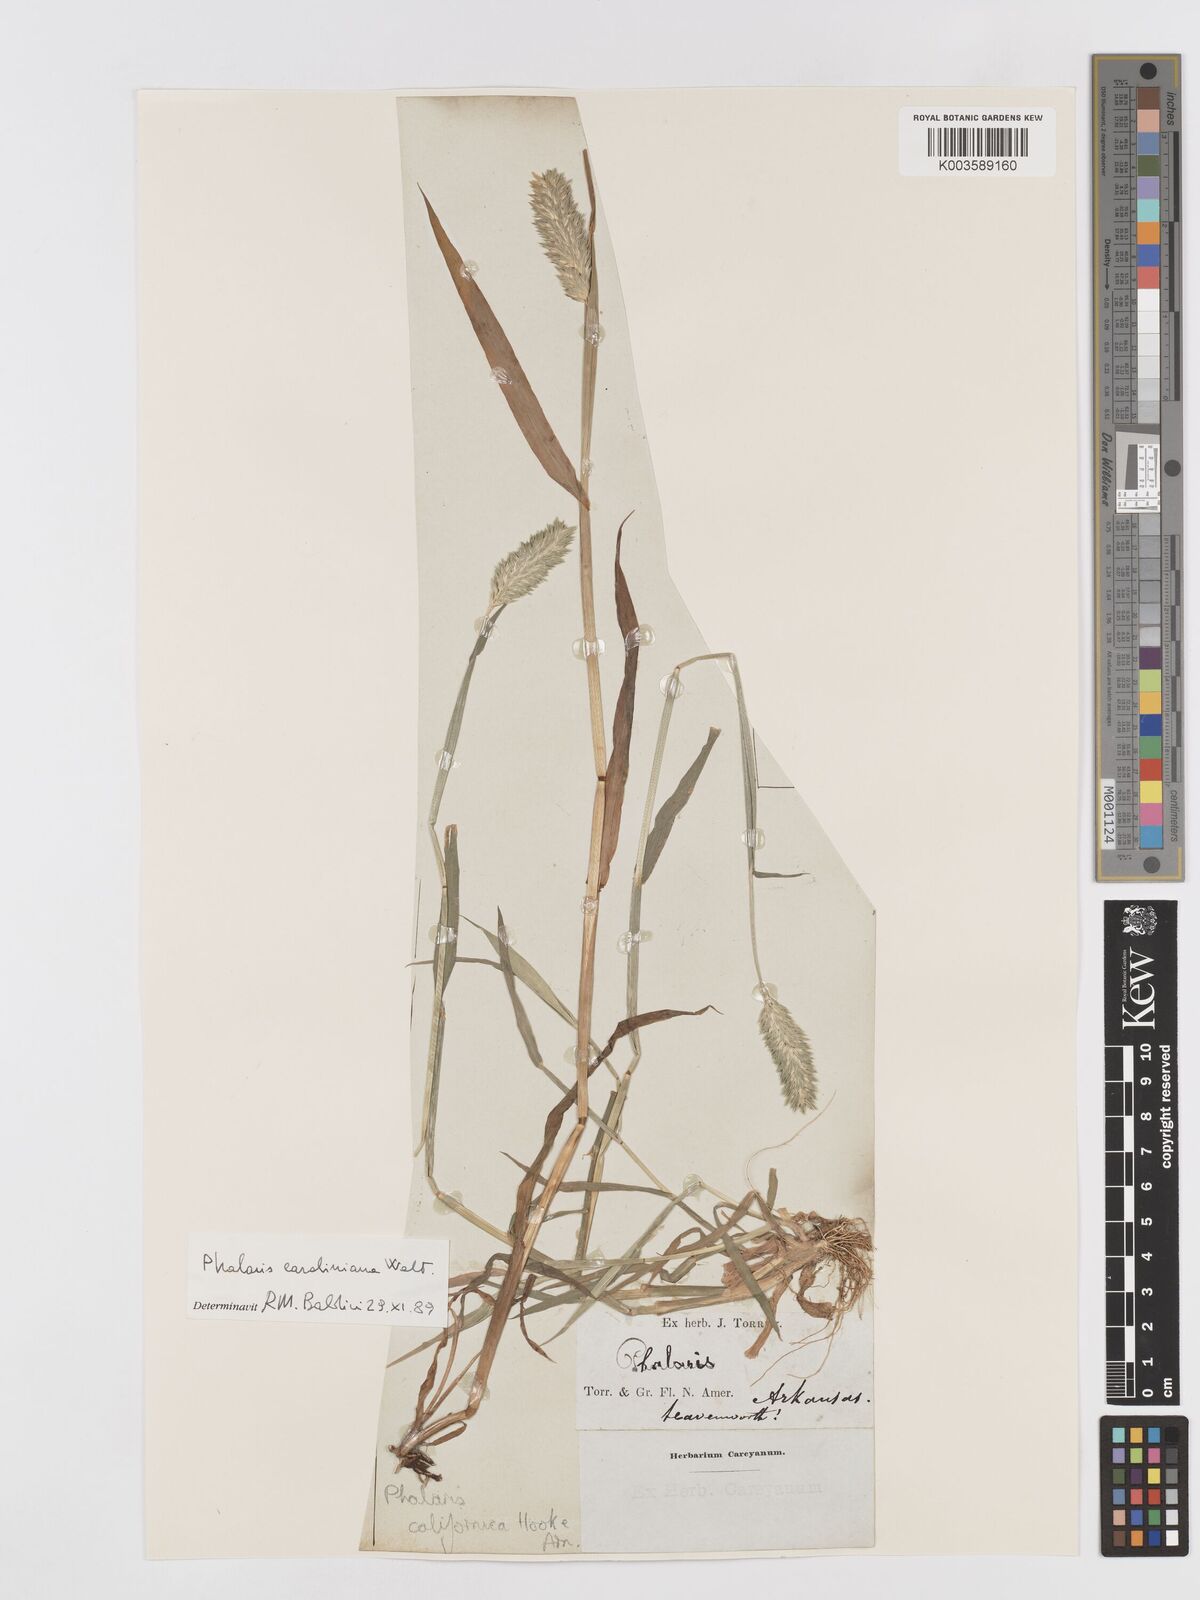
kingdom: Plantae
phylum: Tracheophyta
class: Liliopsida
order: Poales
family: Poaceae
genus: Phalaris
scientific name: Phalaris caroliniana
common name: May grass
